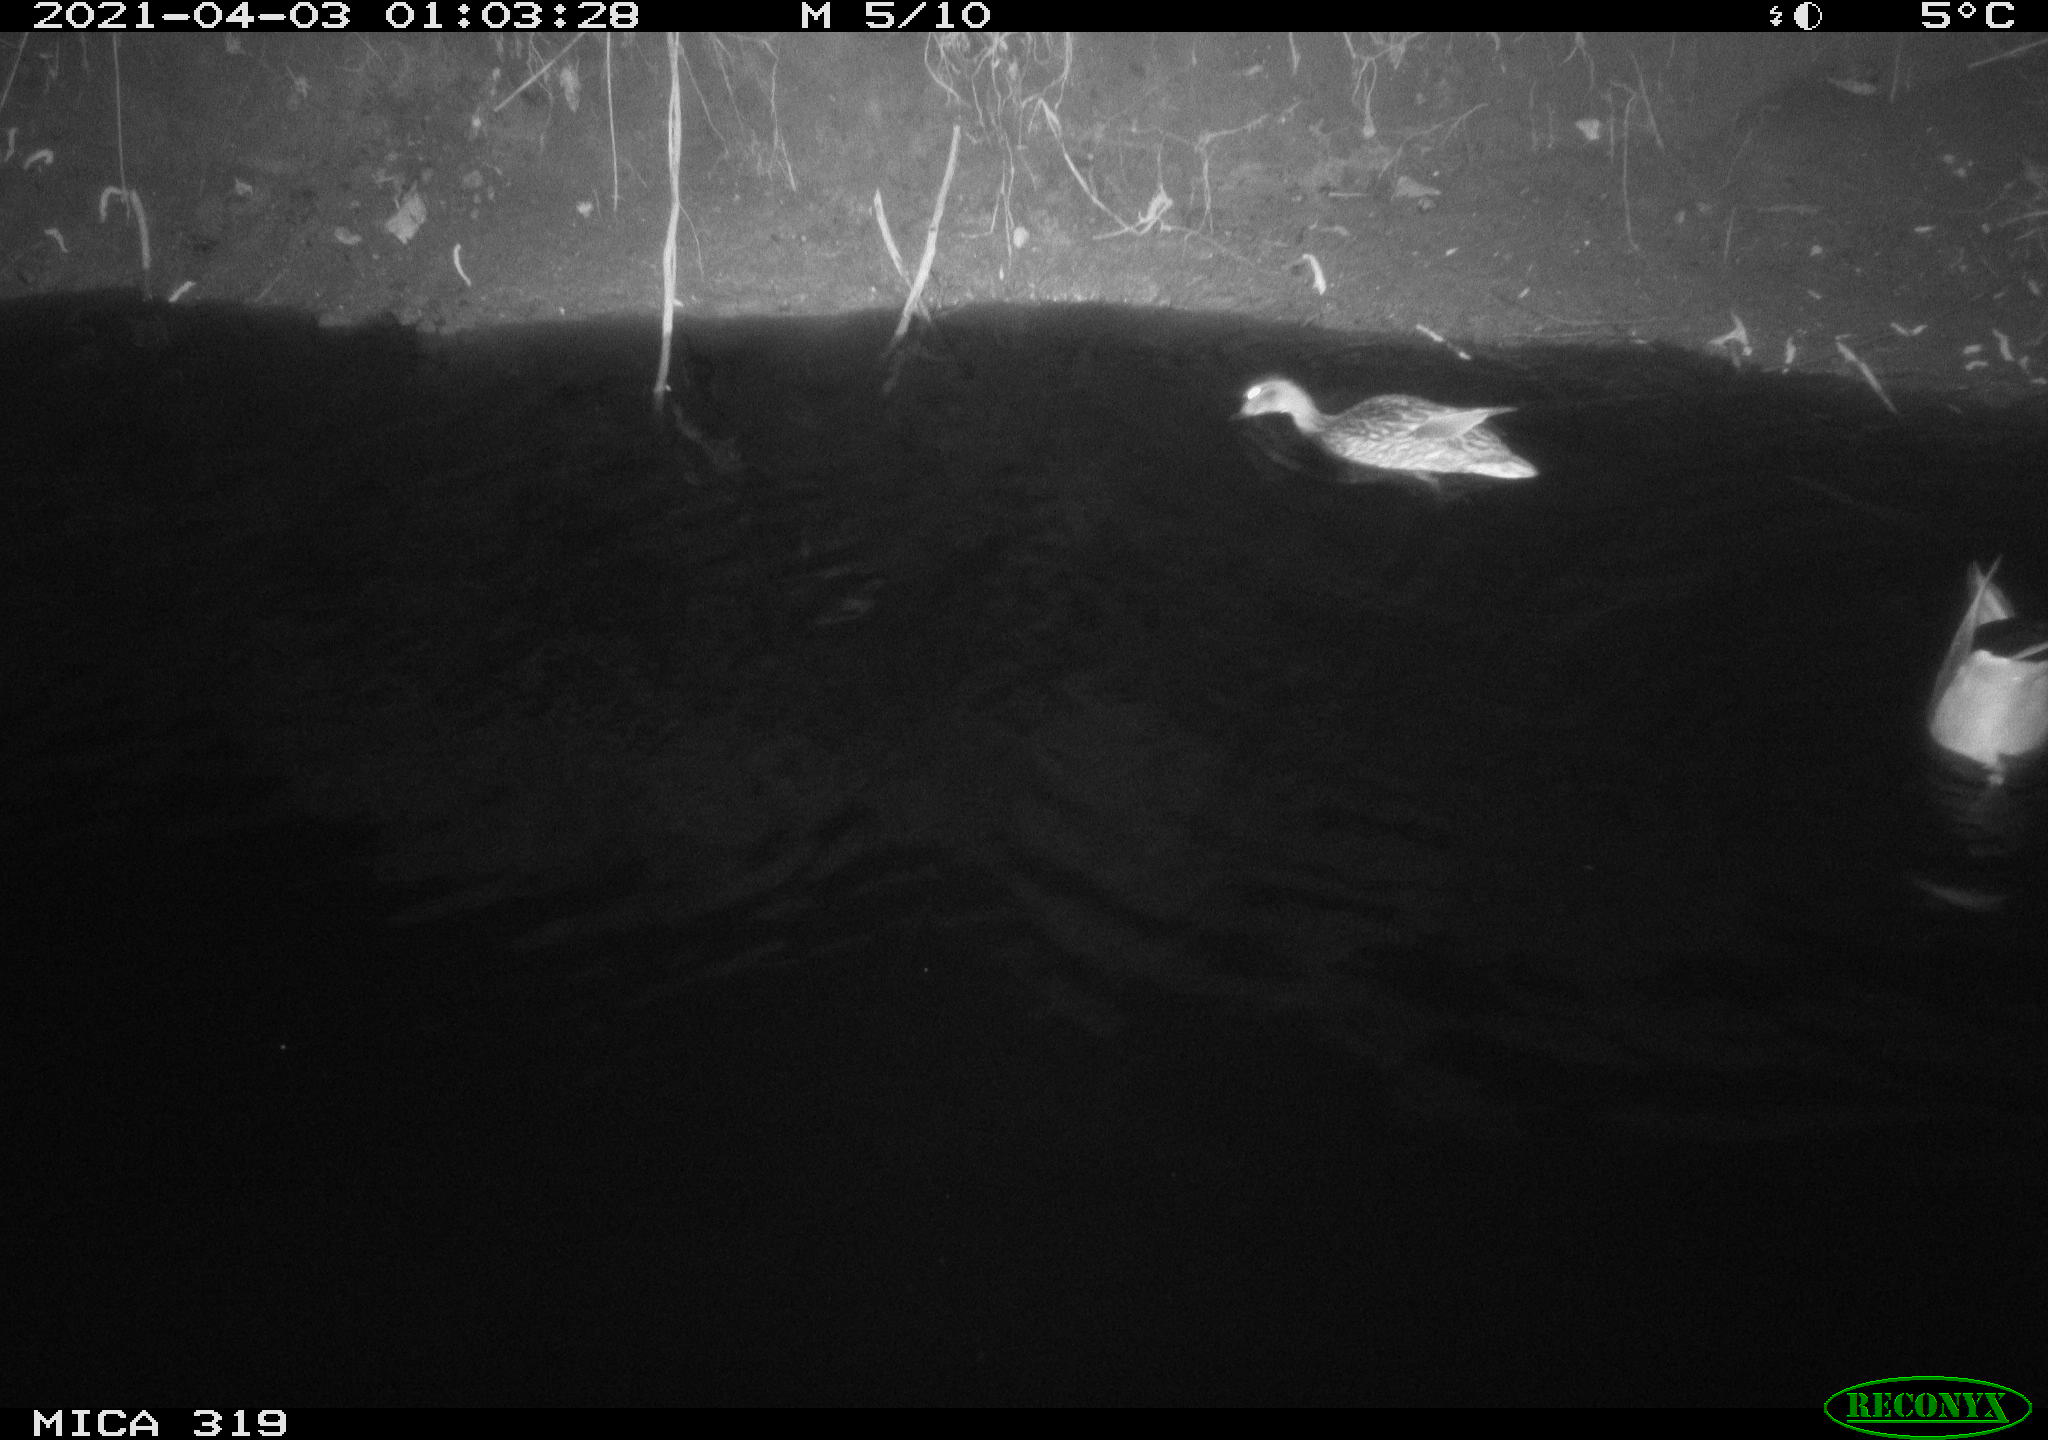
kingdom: Animalia
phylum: Chordata
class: Aves
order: Anseriformes
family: Anatidae
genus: Anas
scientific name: Anas platyrhynchos
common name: Mallard
